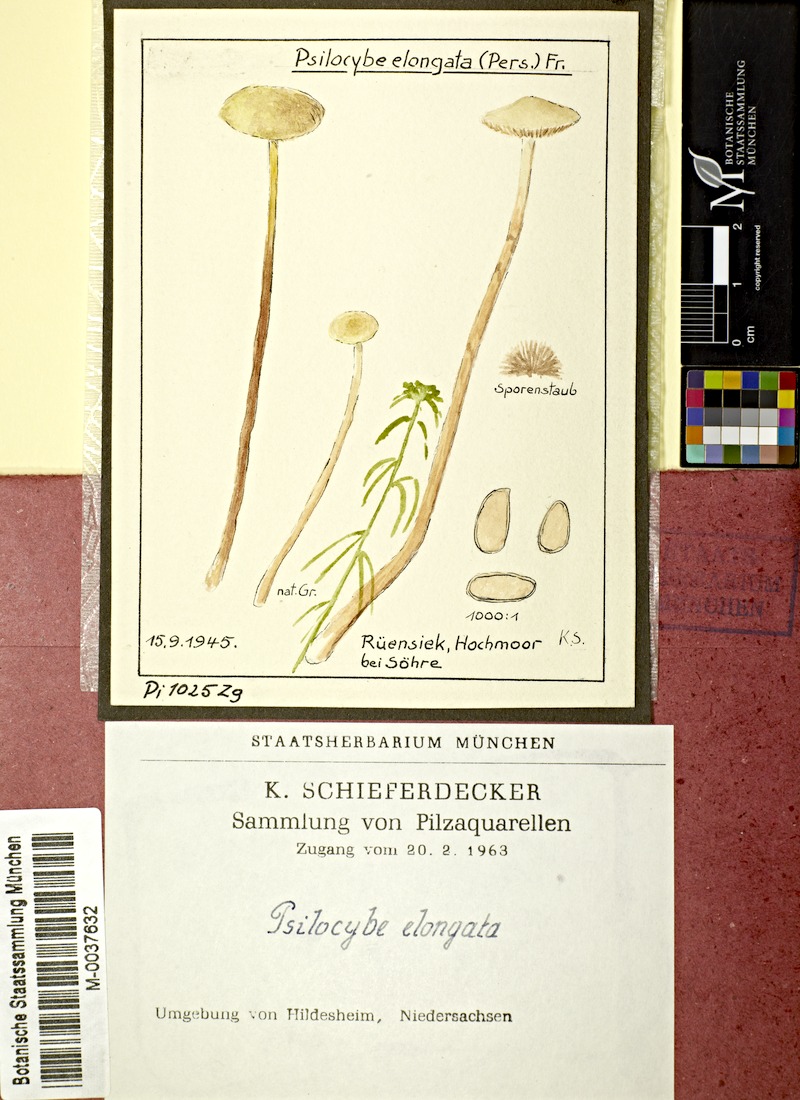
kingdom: Fungi
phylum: Basidiomycota
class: Agaricomycetes
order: Agaricales
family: Strophariaceae
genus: Hypholoma
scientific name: Hypholoma elongatum
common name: Sphagnum brownie
